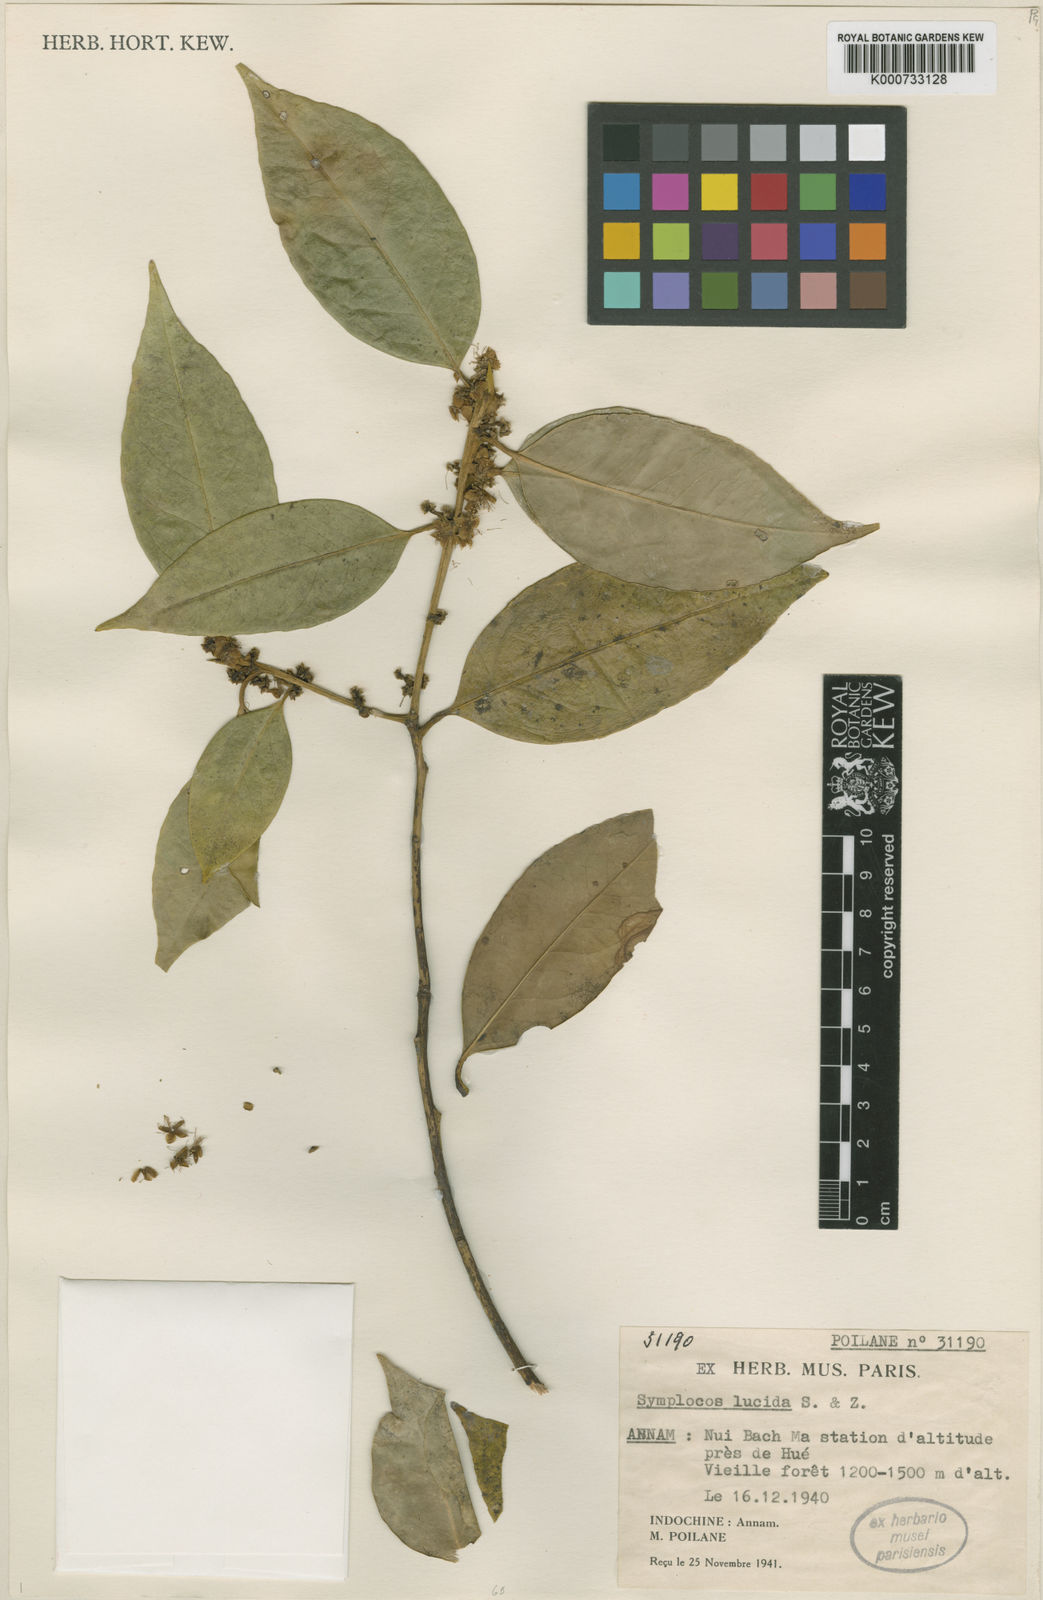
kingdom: Plantae
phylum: Tracheophyta
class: Magnoliopsida
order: Ericales
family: Symplocaceae
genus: Symplocos
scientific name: Symplocos
